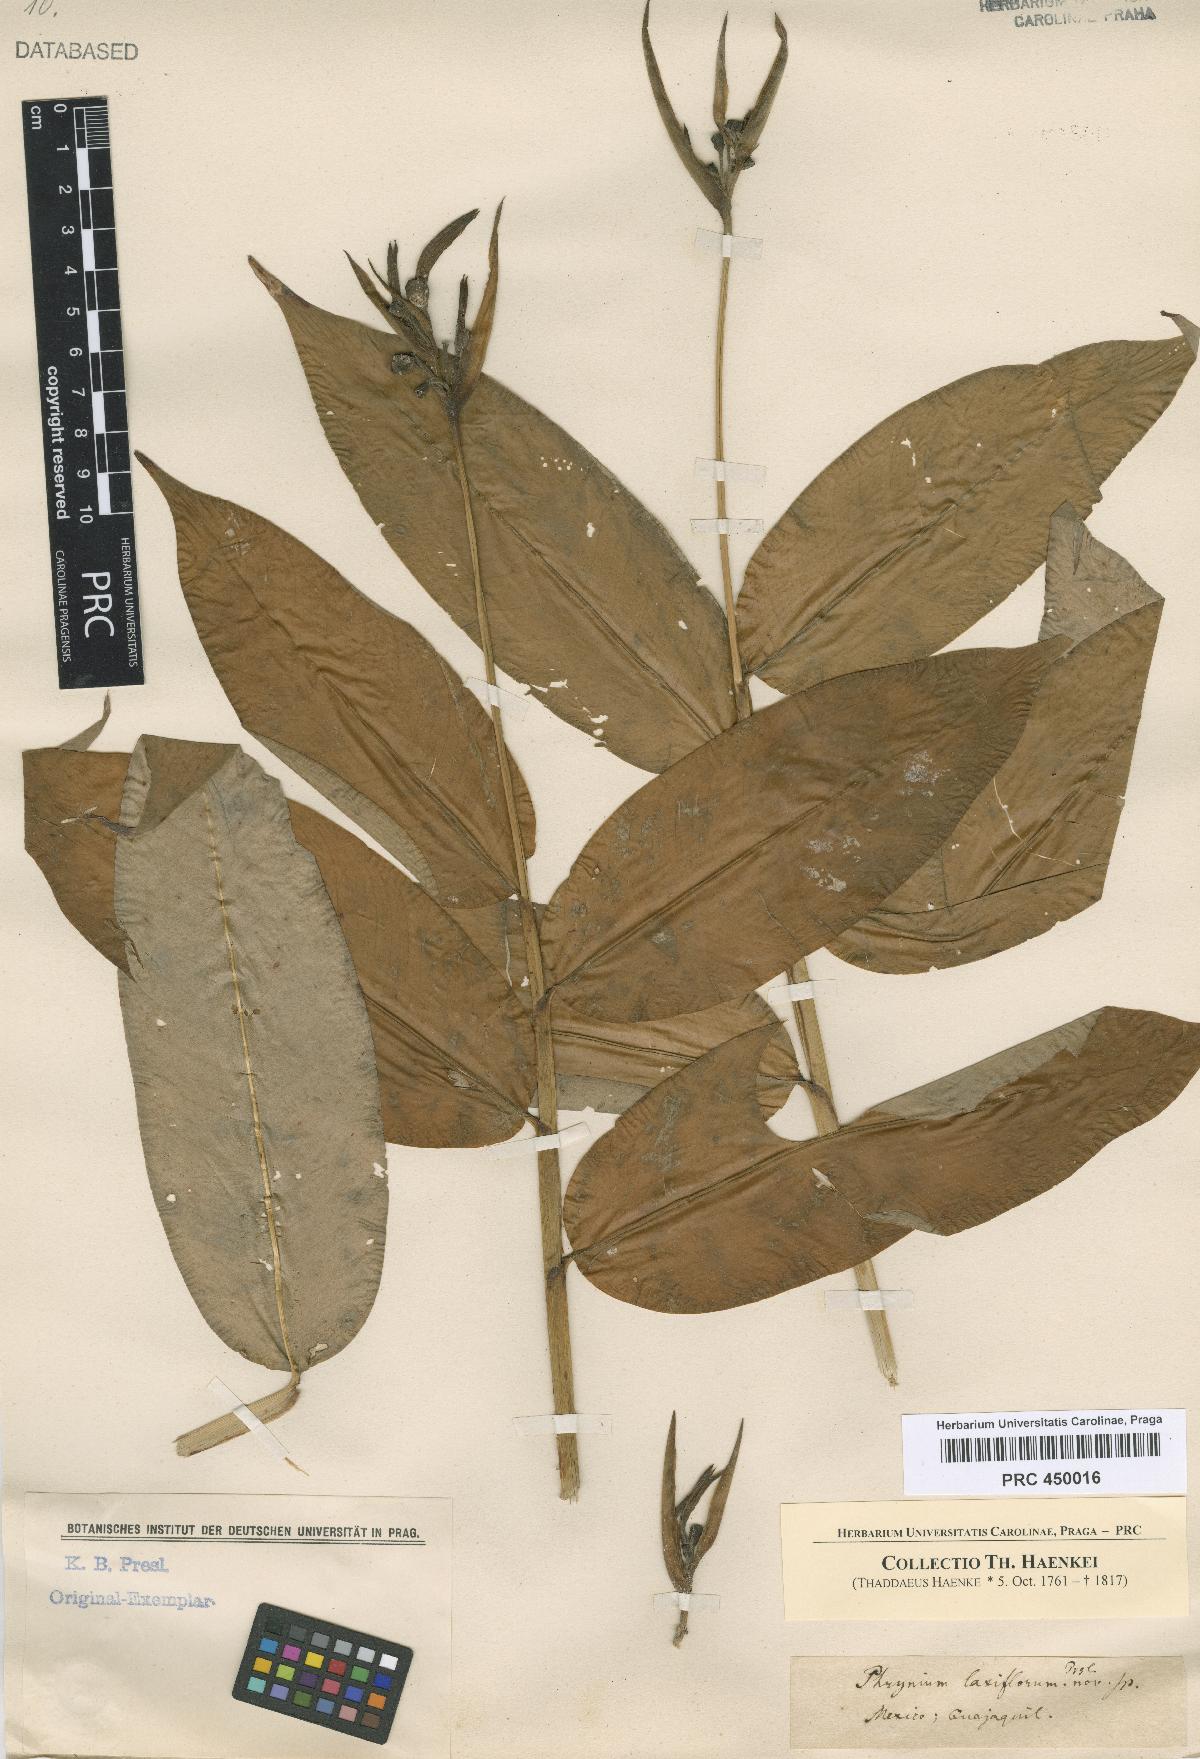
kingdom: Plantae
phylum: Tracheophyta
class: Liliopsida
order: Zingiberales
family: Marantaceae
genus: Phrynium
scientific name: Phrynium
